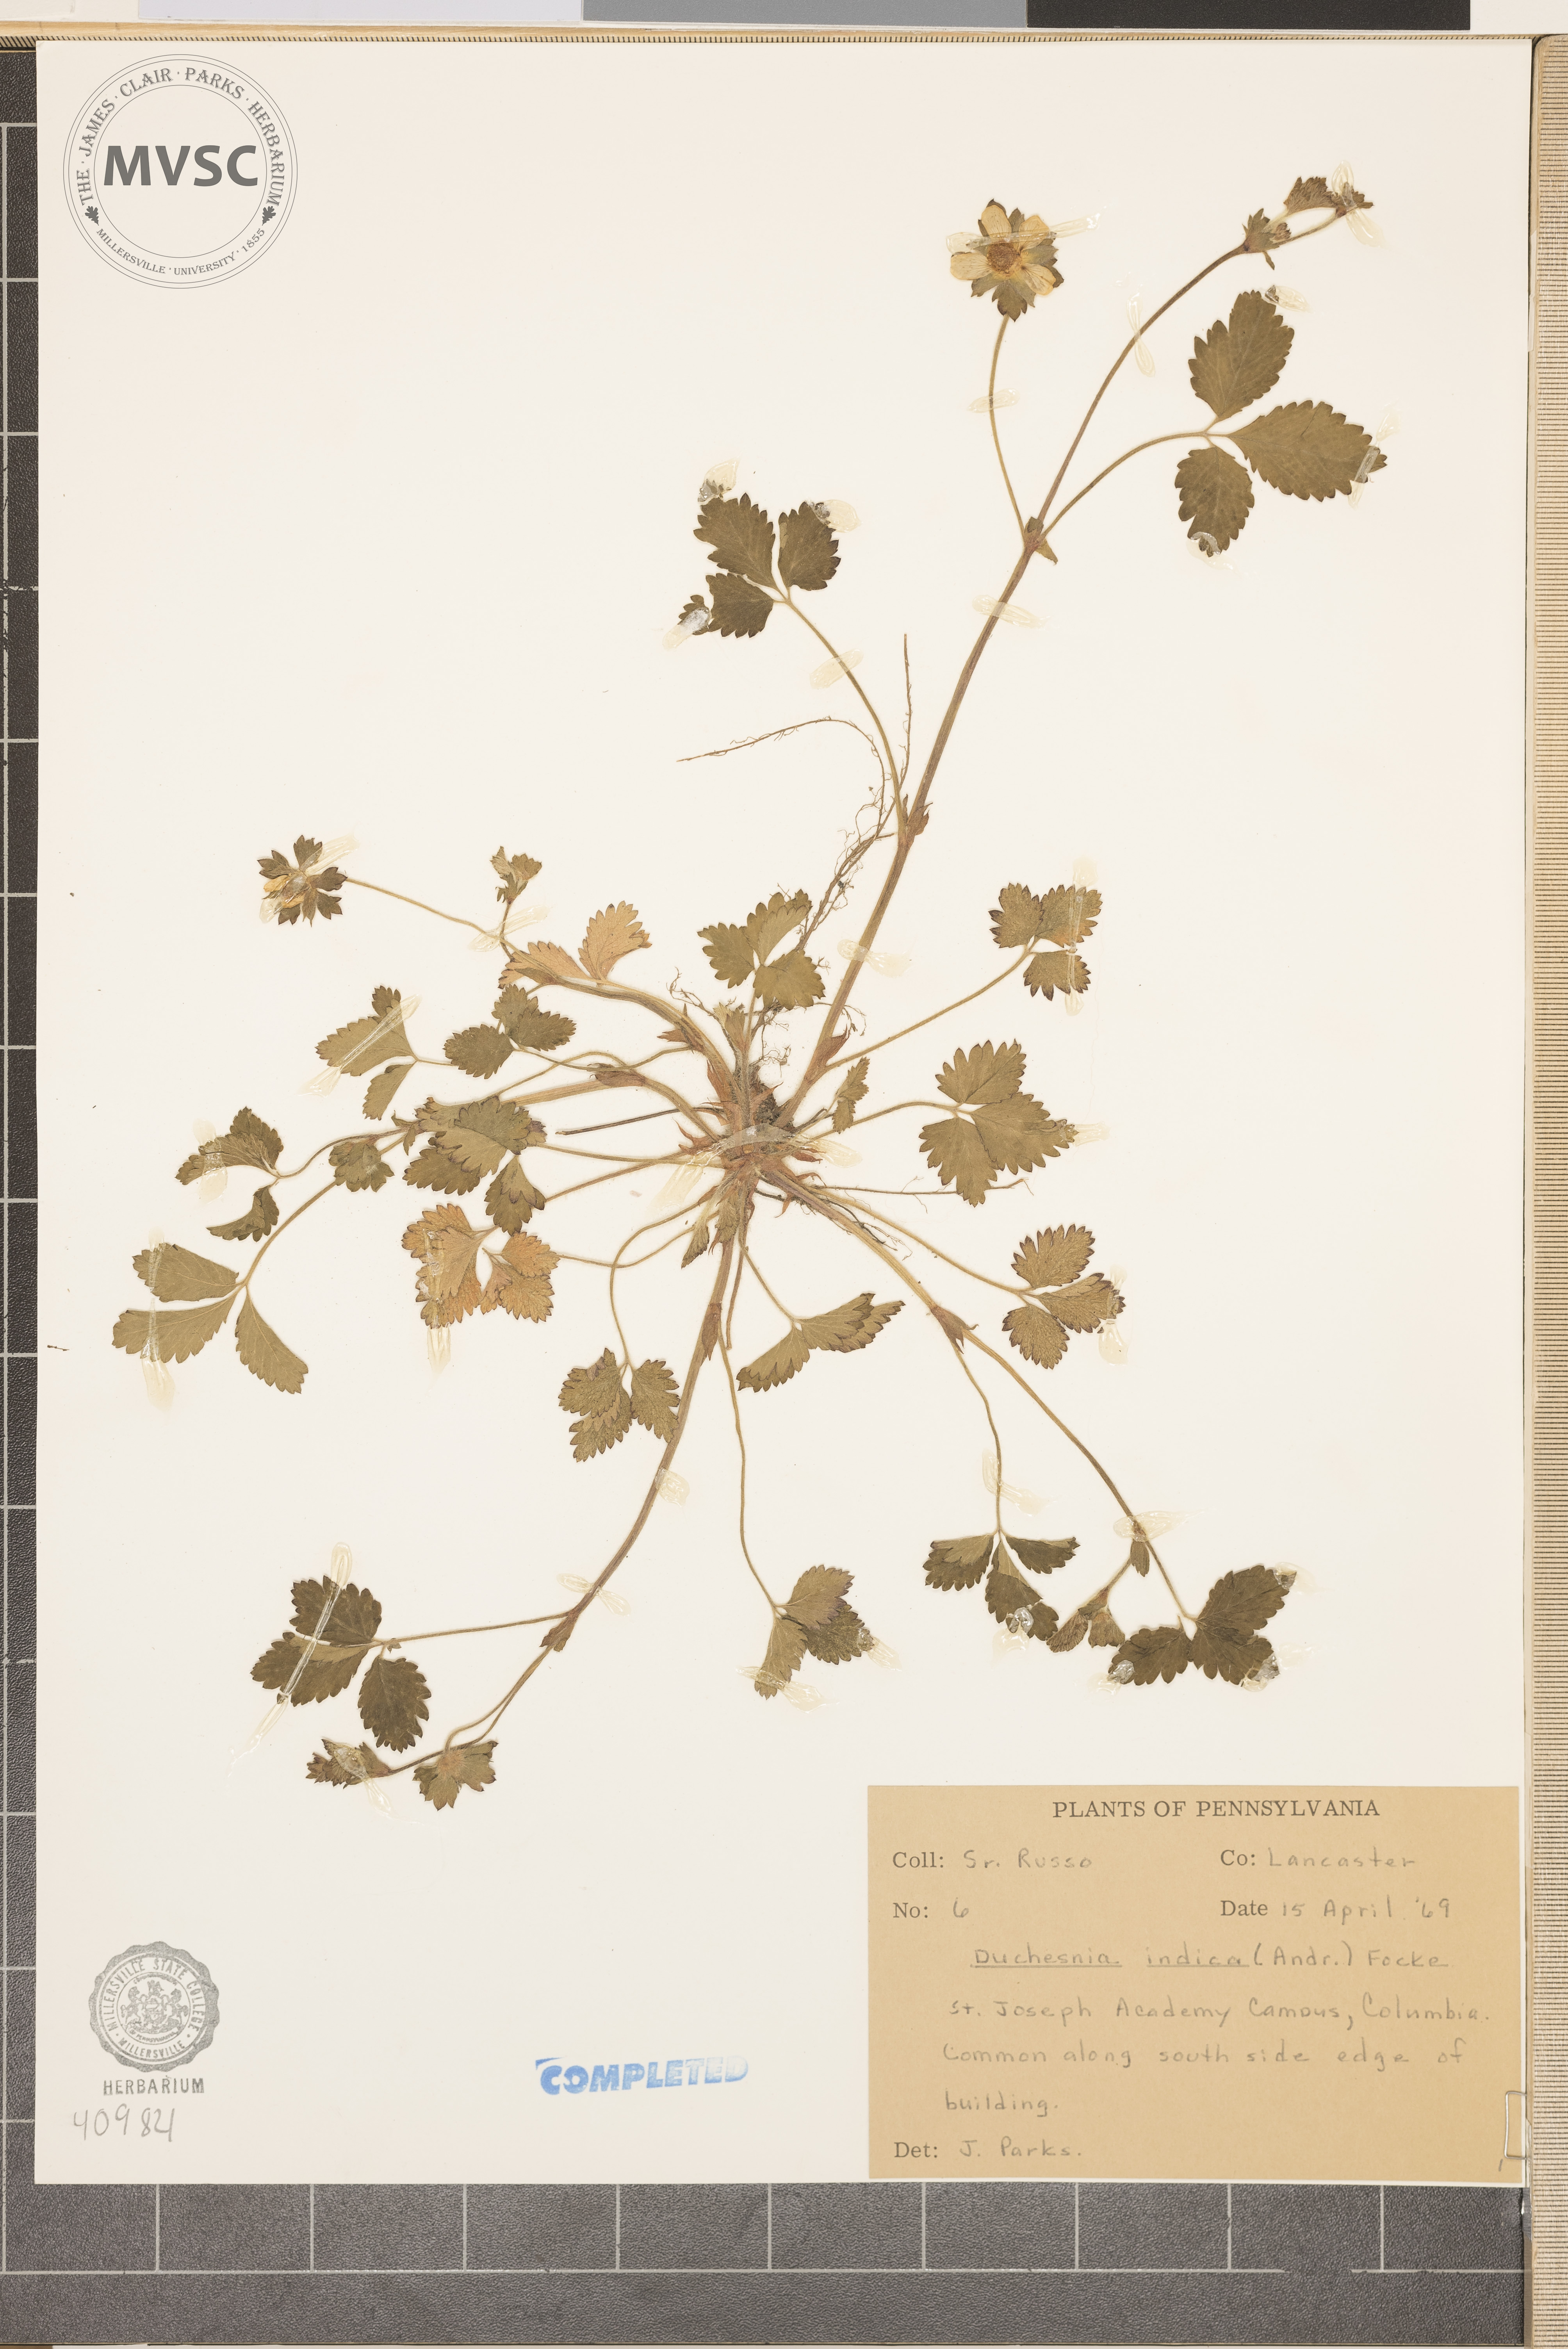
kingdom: Plantae
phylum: Tracheophyta
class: Magnoliopsida
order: Rosales
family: Rosaceae
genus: Potentilla
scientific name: Potentilla indica
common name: Yellow-flowered strawberry
